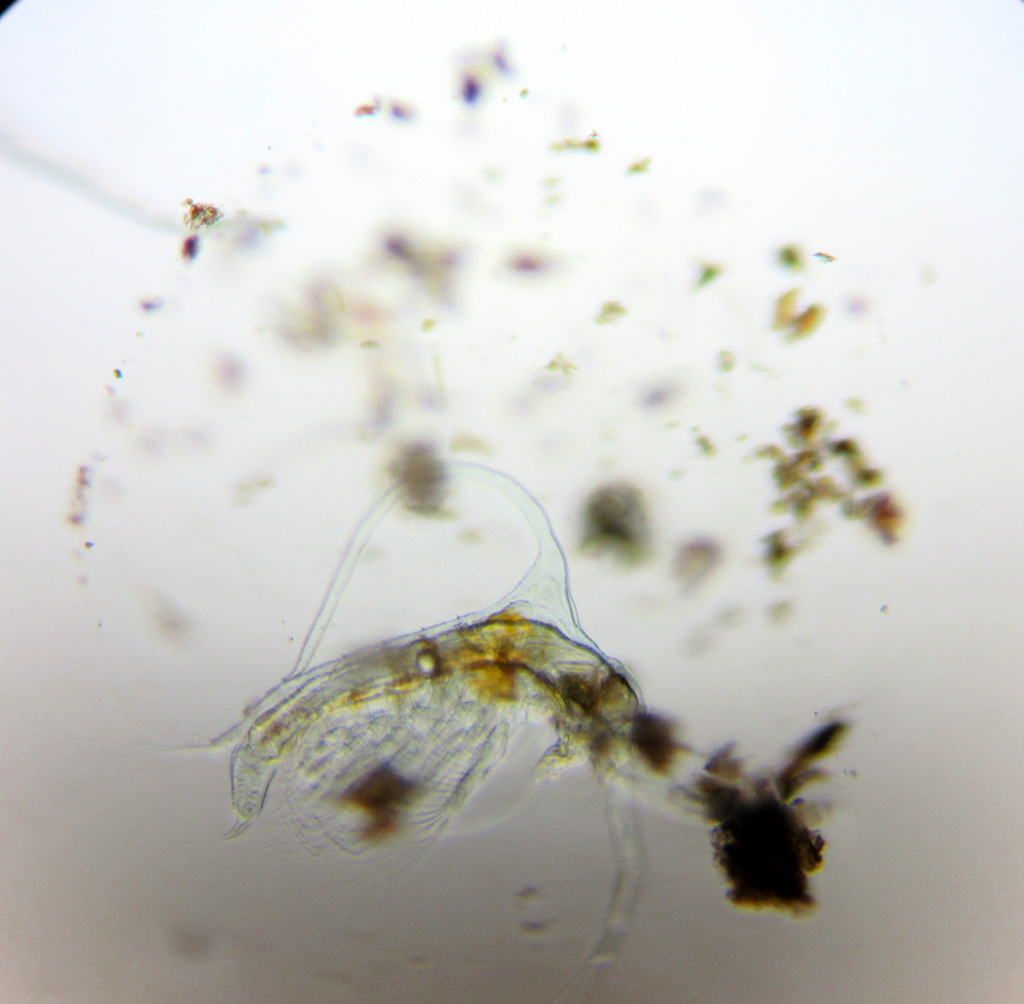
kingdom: Animalia
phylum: Arthropoda
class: Branchiopoda
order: Diplostraca
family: Holopediidae
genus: Holopedium
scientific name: Holopedium gibberum
